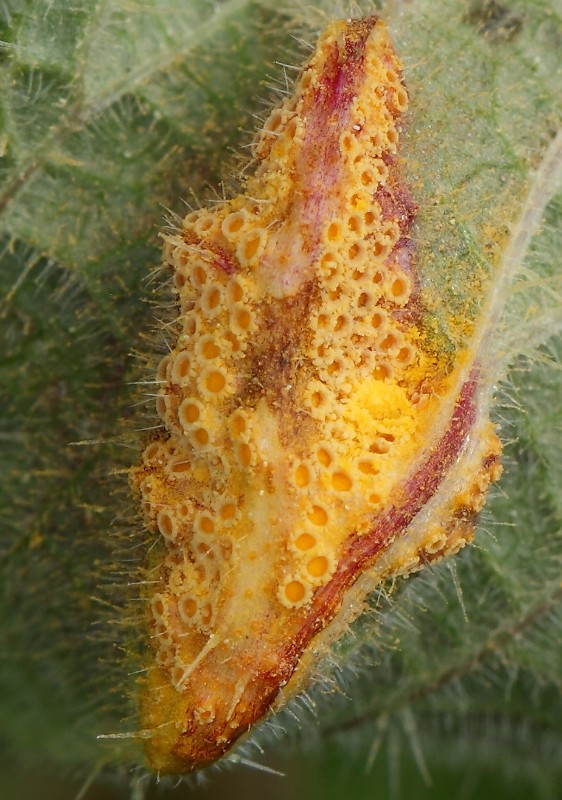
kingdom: Fungi
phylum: Basidiomycota
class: Pucciniomycetes
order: Pucciniales
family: Pucciniaceae
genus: Puccinia
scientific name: Puccinia urticata
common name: nældegalle-tvecellerust
